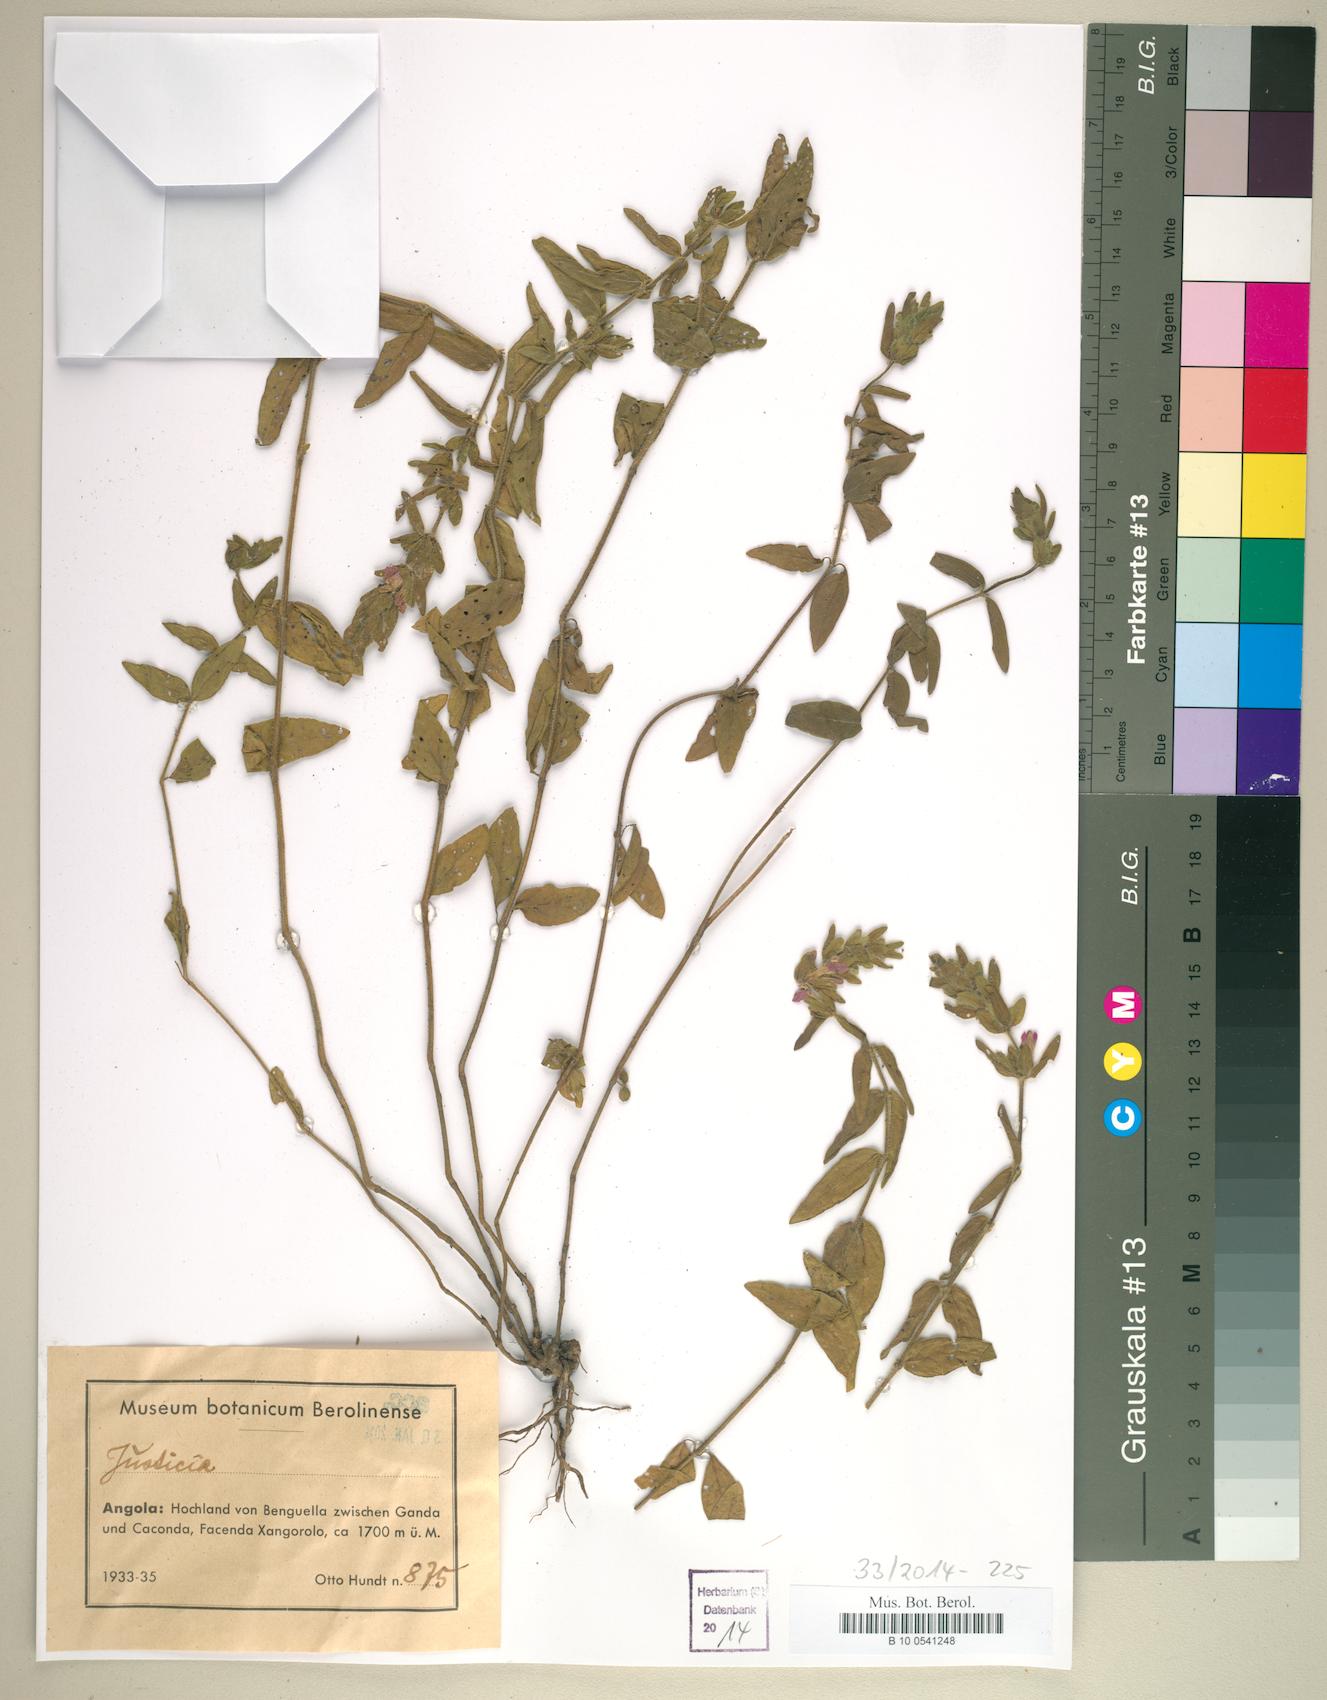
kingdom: Plantae
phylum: Tracheophyta
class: Magnoliopsida
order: Lamiales
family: Acanthaceae
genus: Justicia
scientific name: Justicia
